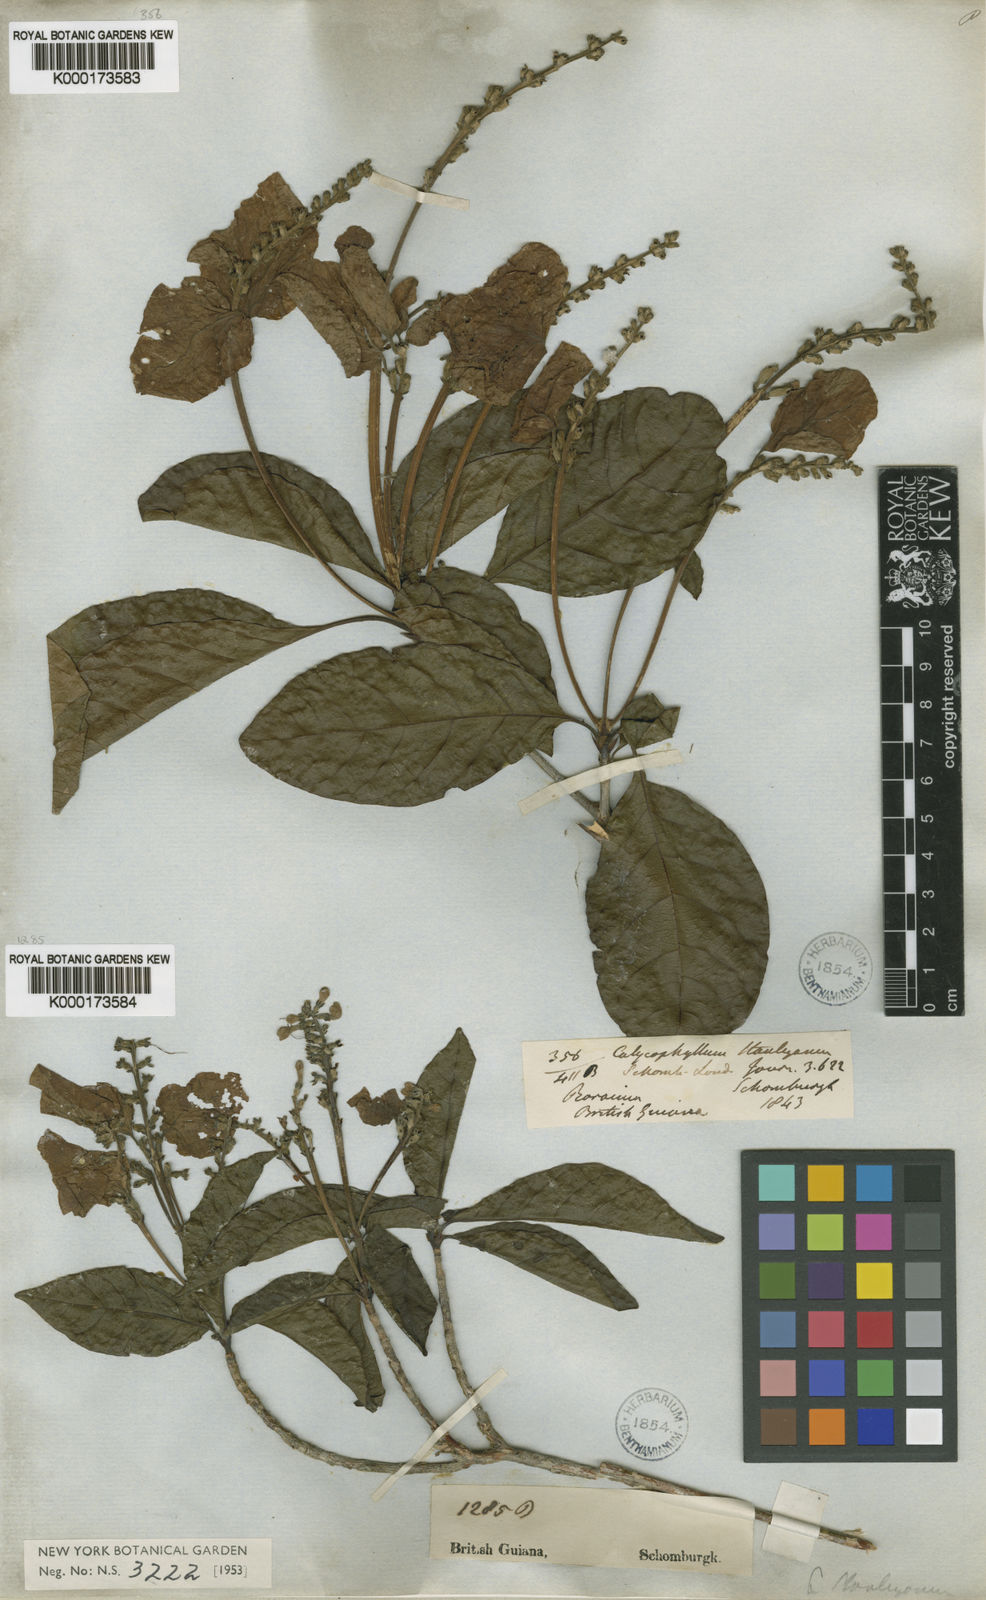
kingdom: Plantae
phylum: Tracheophyta
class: Magnoliopsida
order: Gentianales
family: Rubiaceae
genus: Wittmackanthus
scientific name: Wittmackanthus stanleyanus
